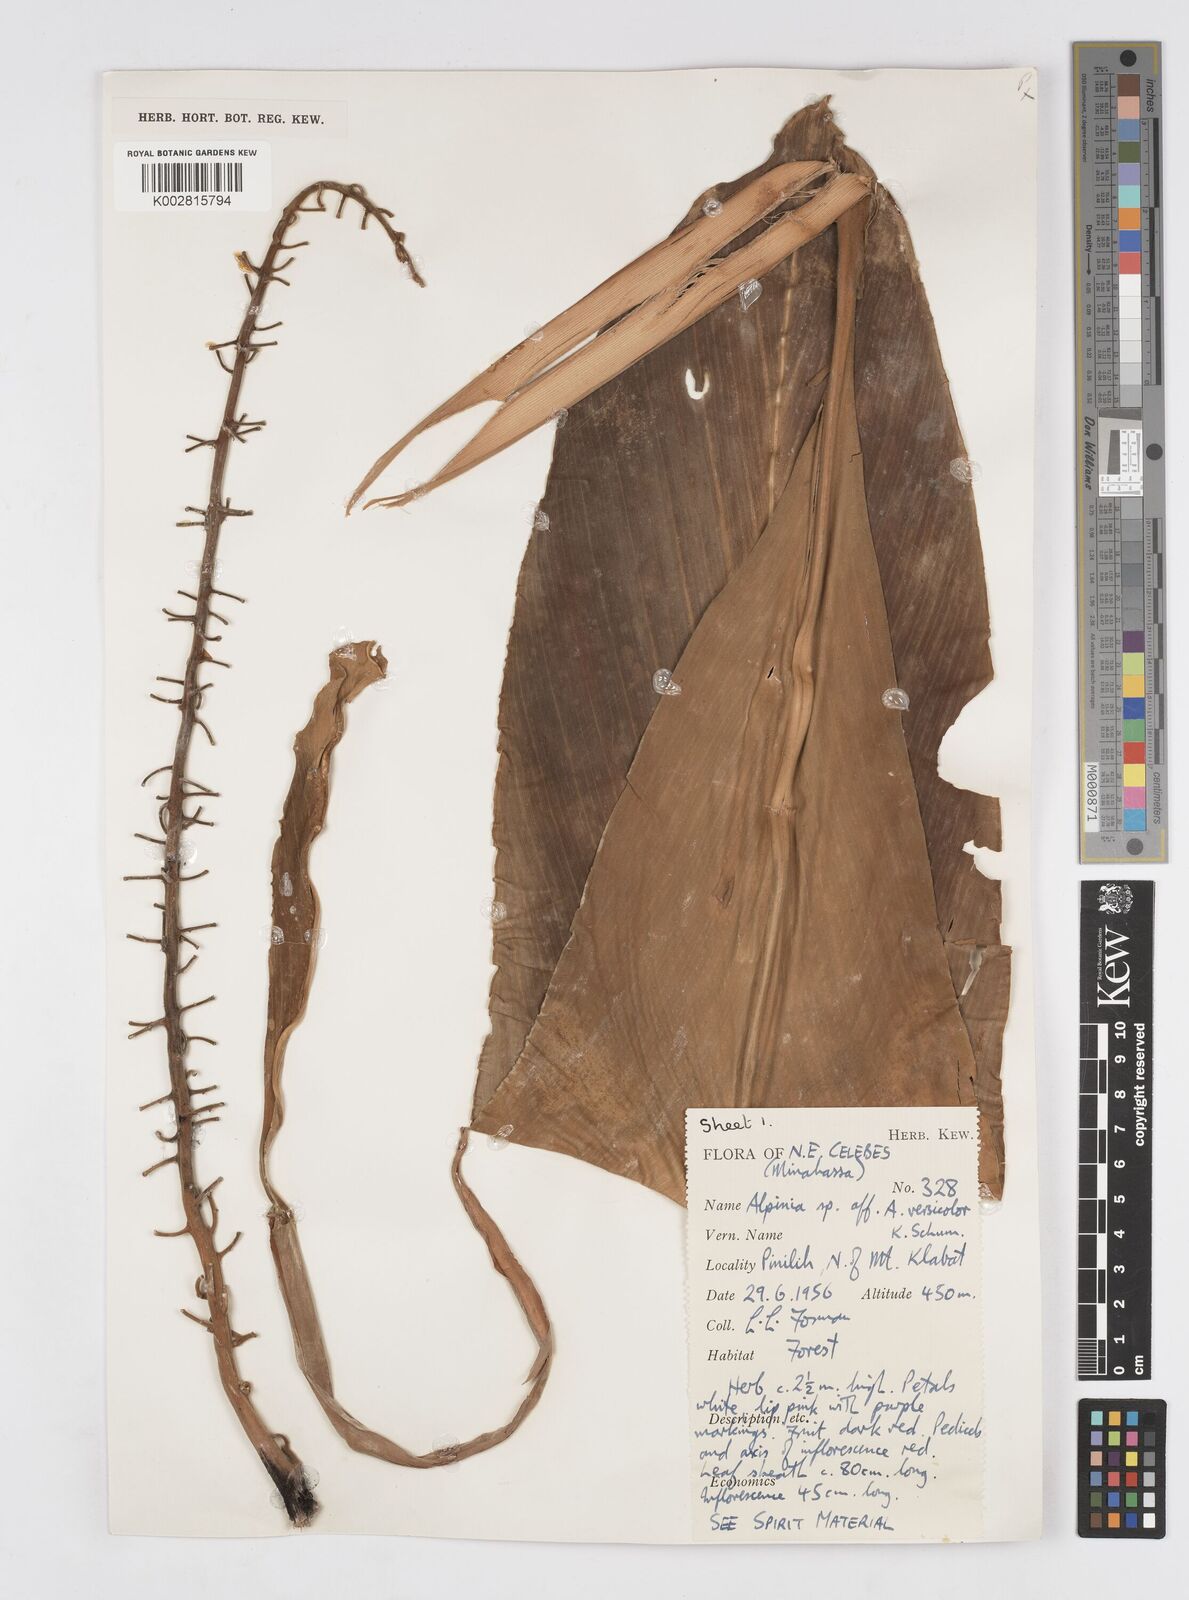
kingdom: Plantae
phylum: Tracheophyta
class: Liliopsida
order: Zingiberales
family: Zingiberaceae
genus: Alpinia
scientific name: Alpinia versicolor
